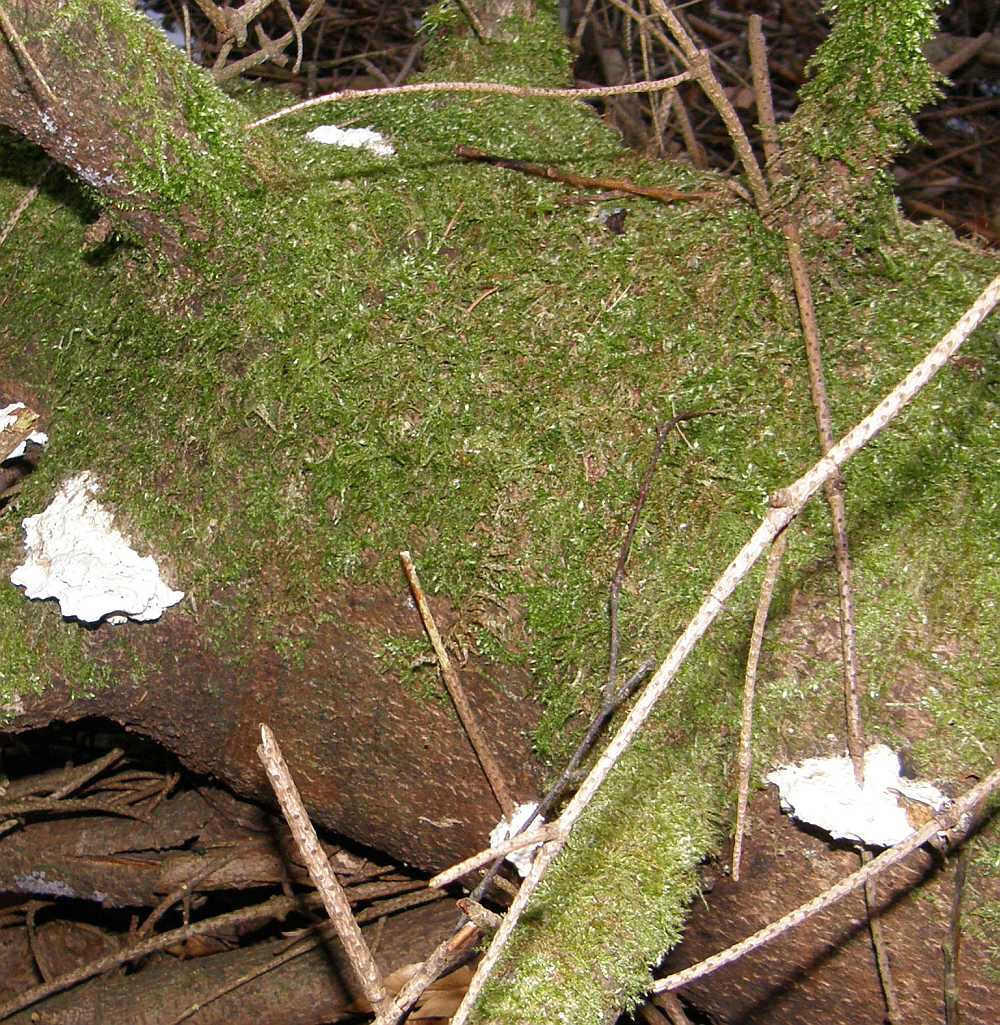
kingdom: Fungi
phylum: Basidiomycota
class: Agaricomycetes
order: Polyporales
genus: Amaropostia
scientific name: Amaropostia stiptica
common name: bitter kødporesvamp
